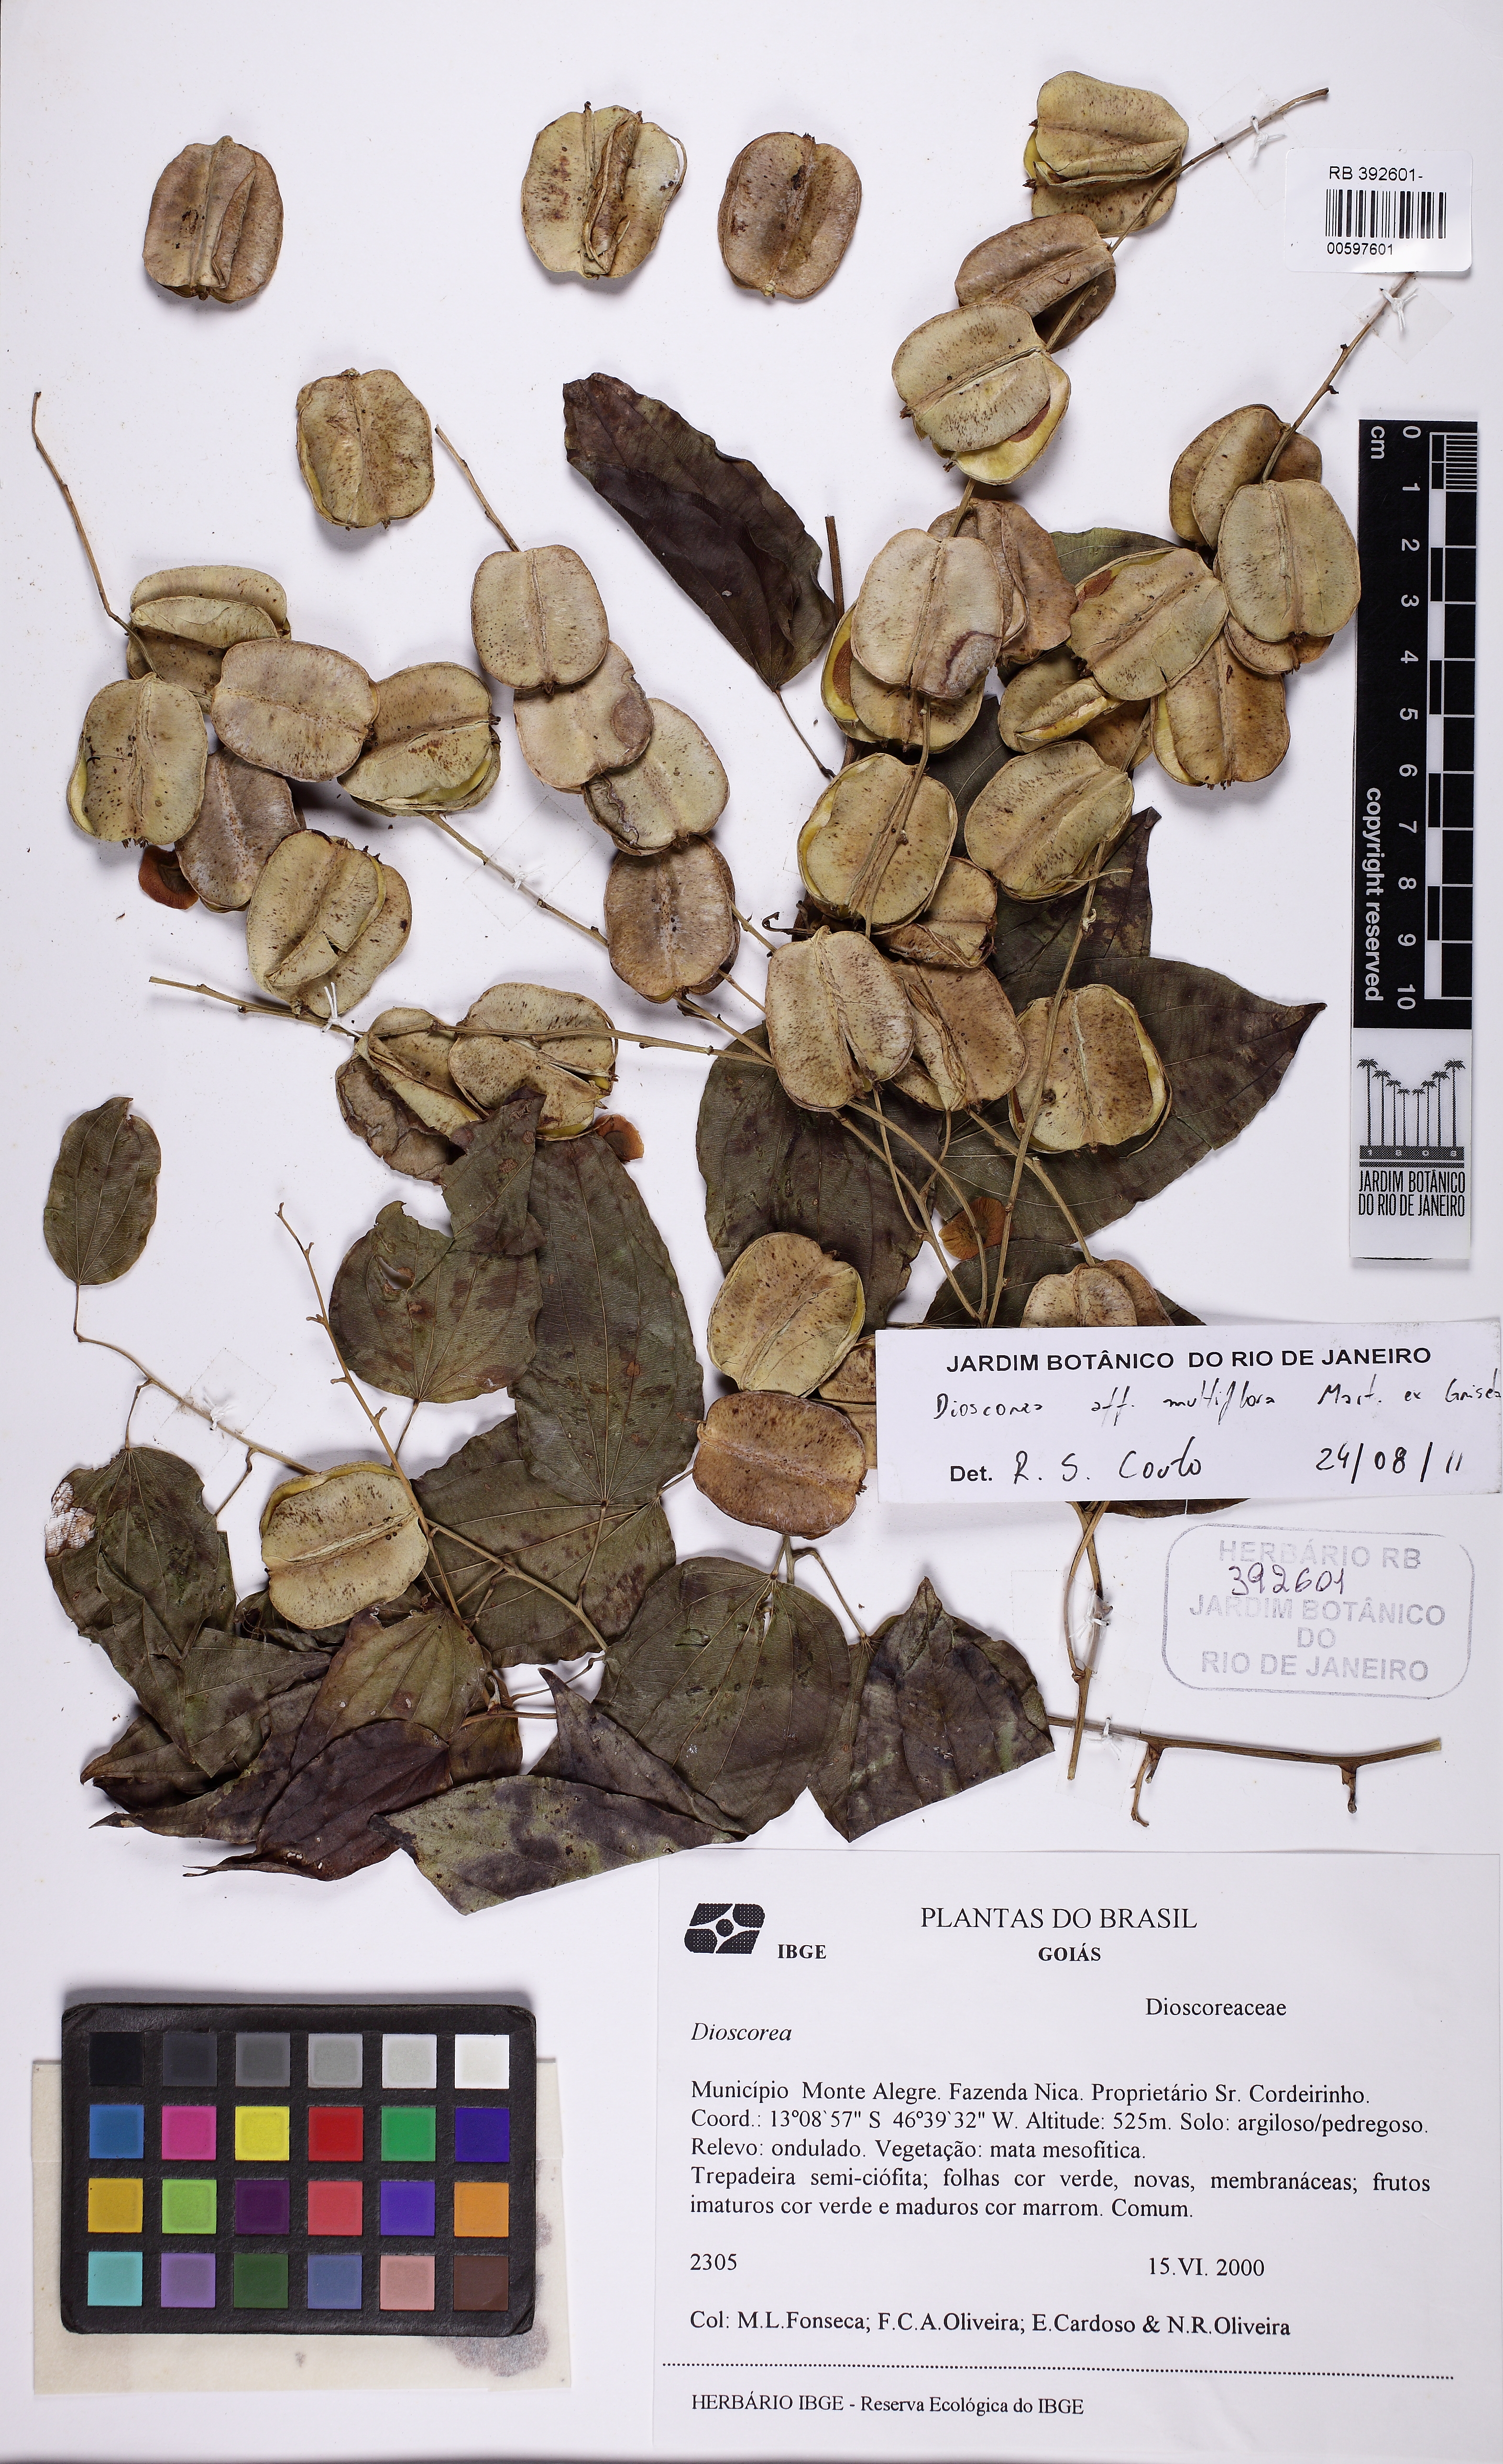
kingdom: Plantae
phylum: Tracheophyta
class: Liliopsida
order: Dioscoreales
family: Dioscoreaceae
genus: Dioscorea
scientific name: Dioscorea acanthogene
